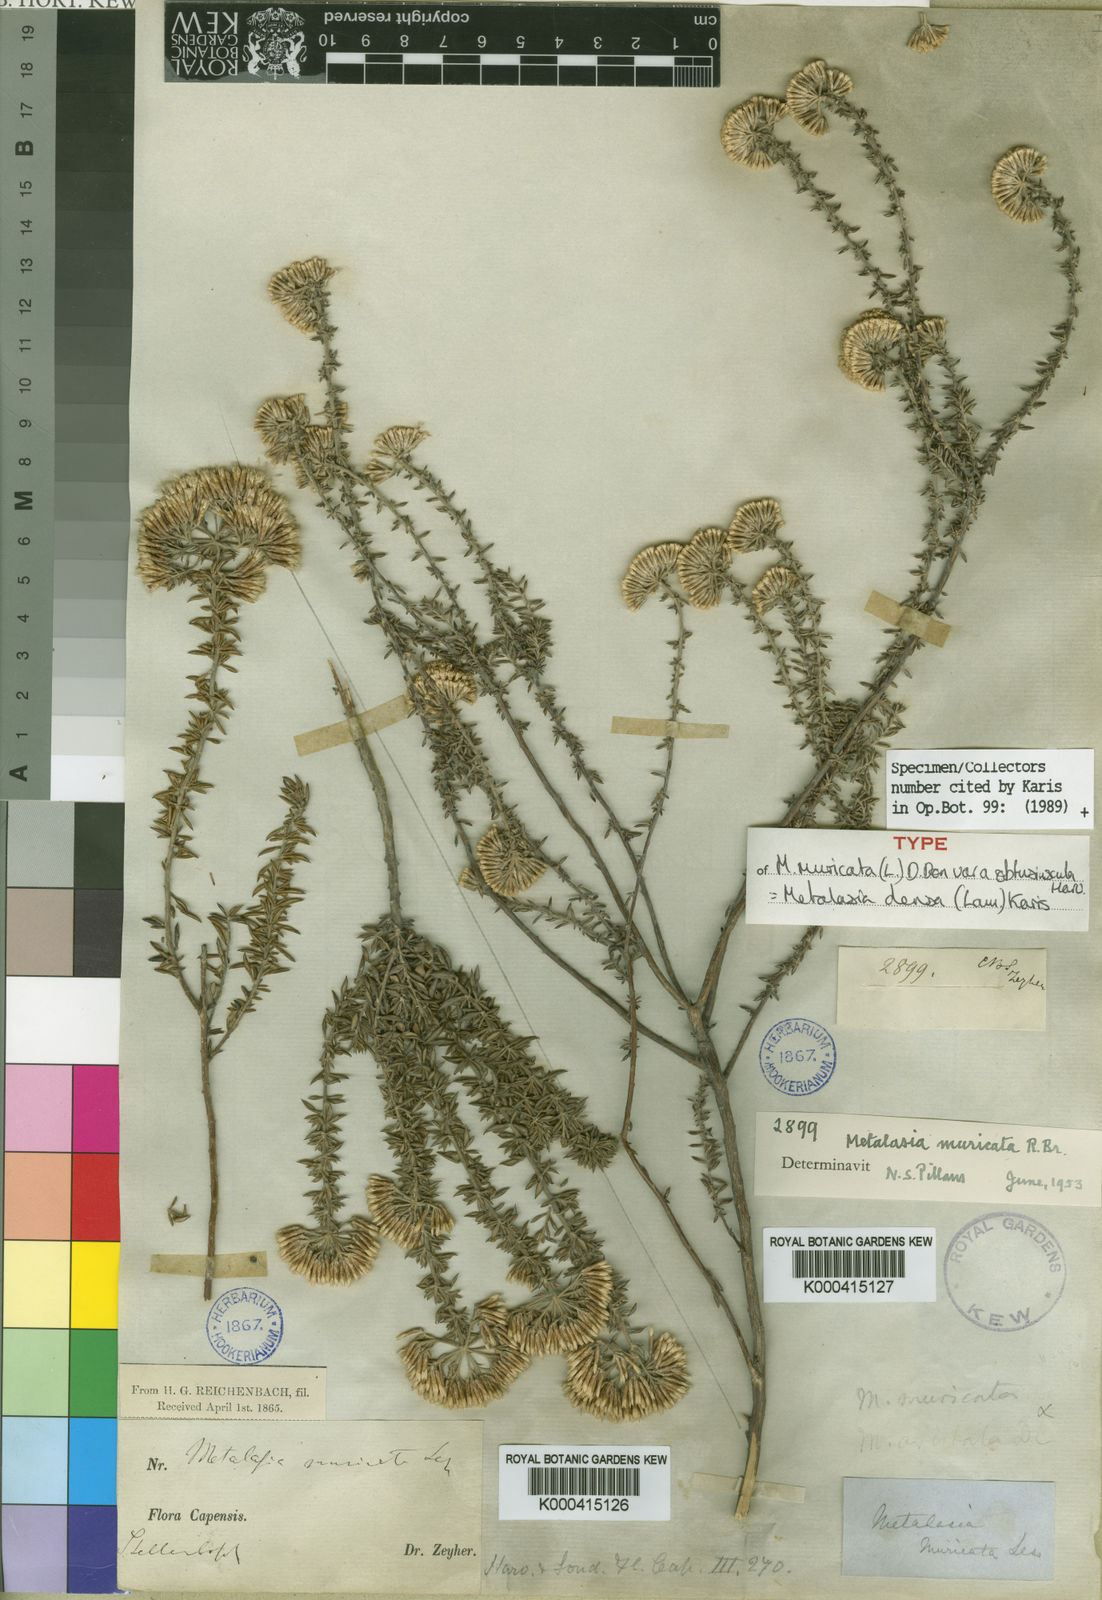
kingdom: Plantae
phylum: Tracheophyta
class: Magnoliopsida
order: Asterales
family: Asteraceae
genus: Metalasia
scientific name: Metalasia densa
